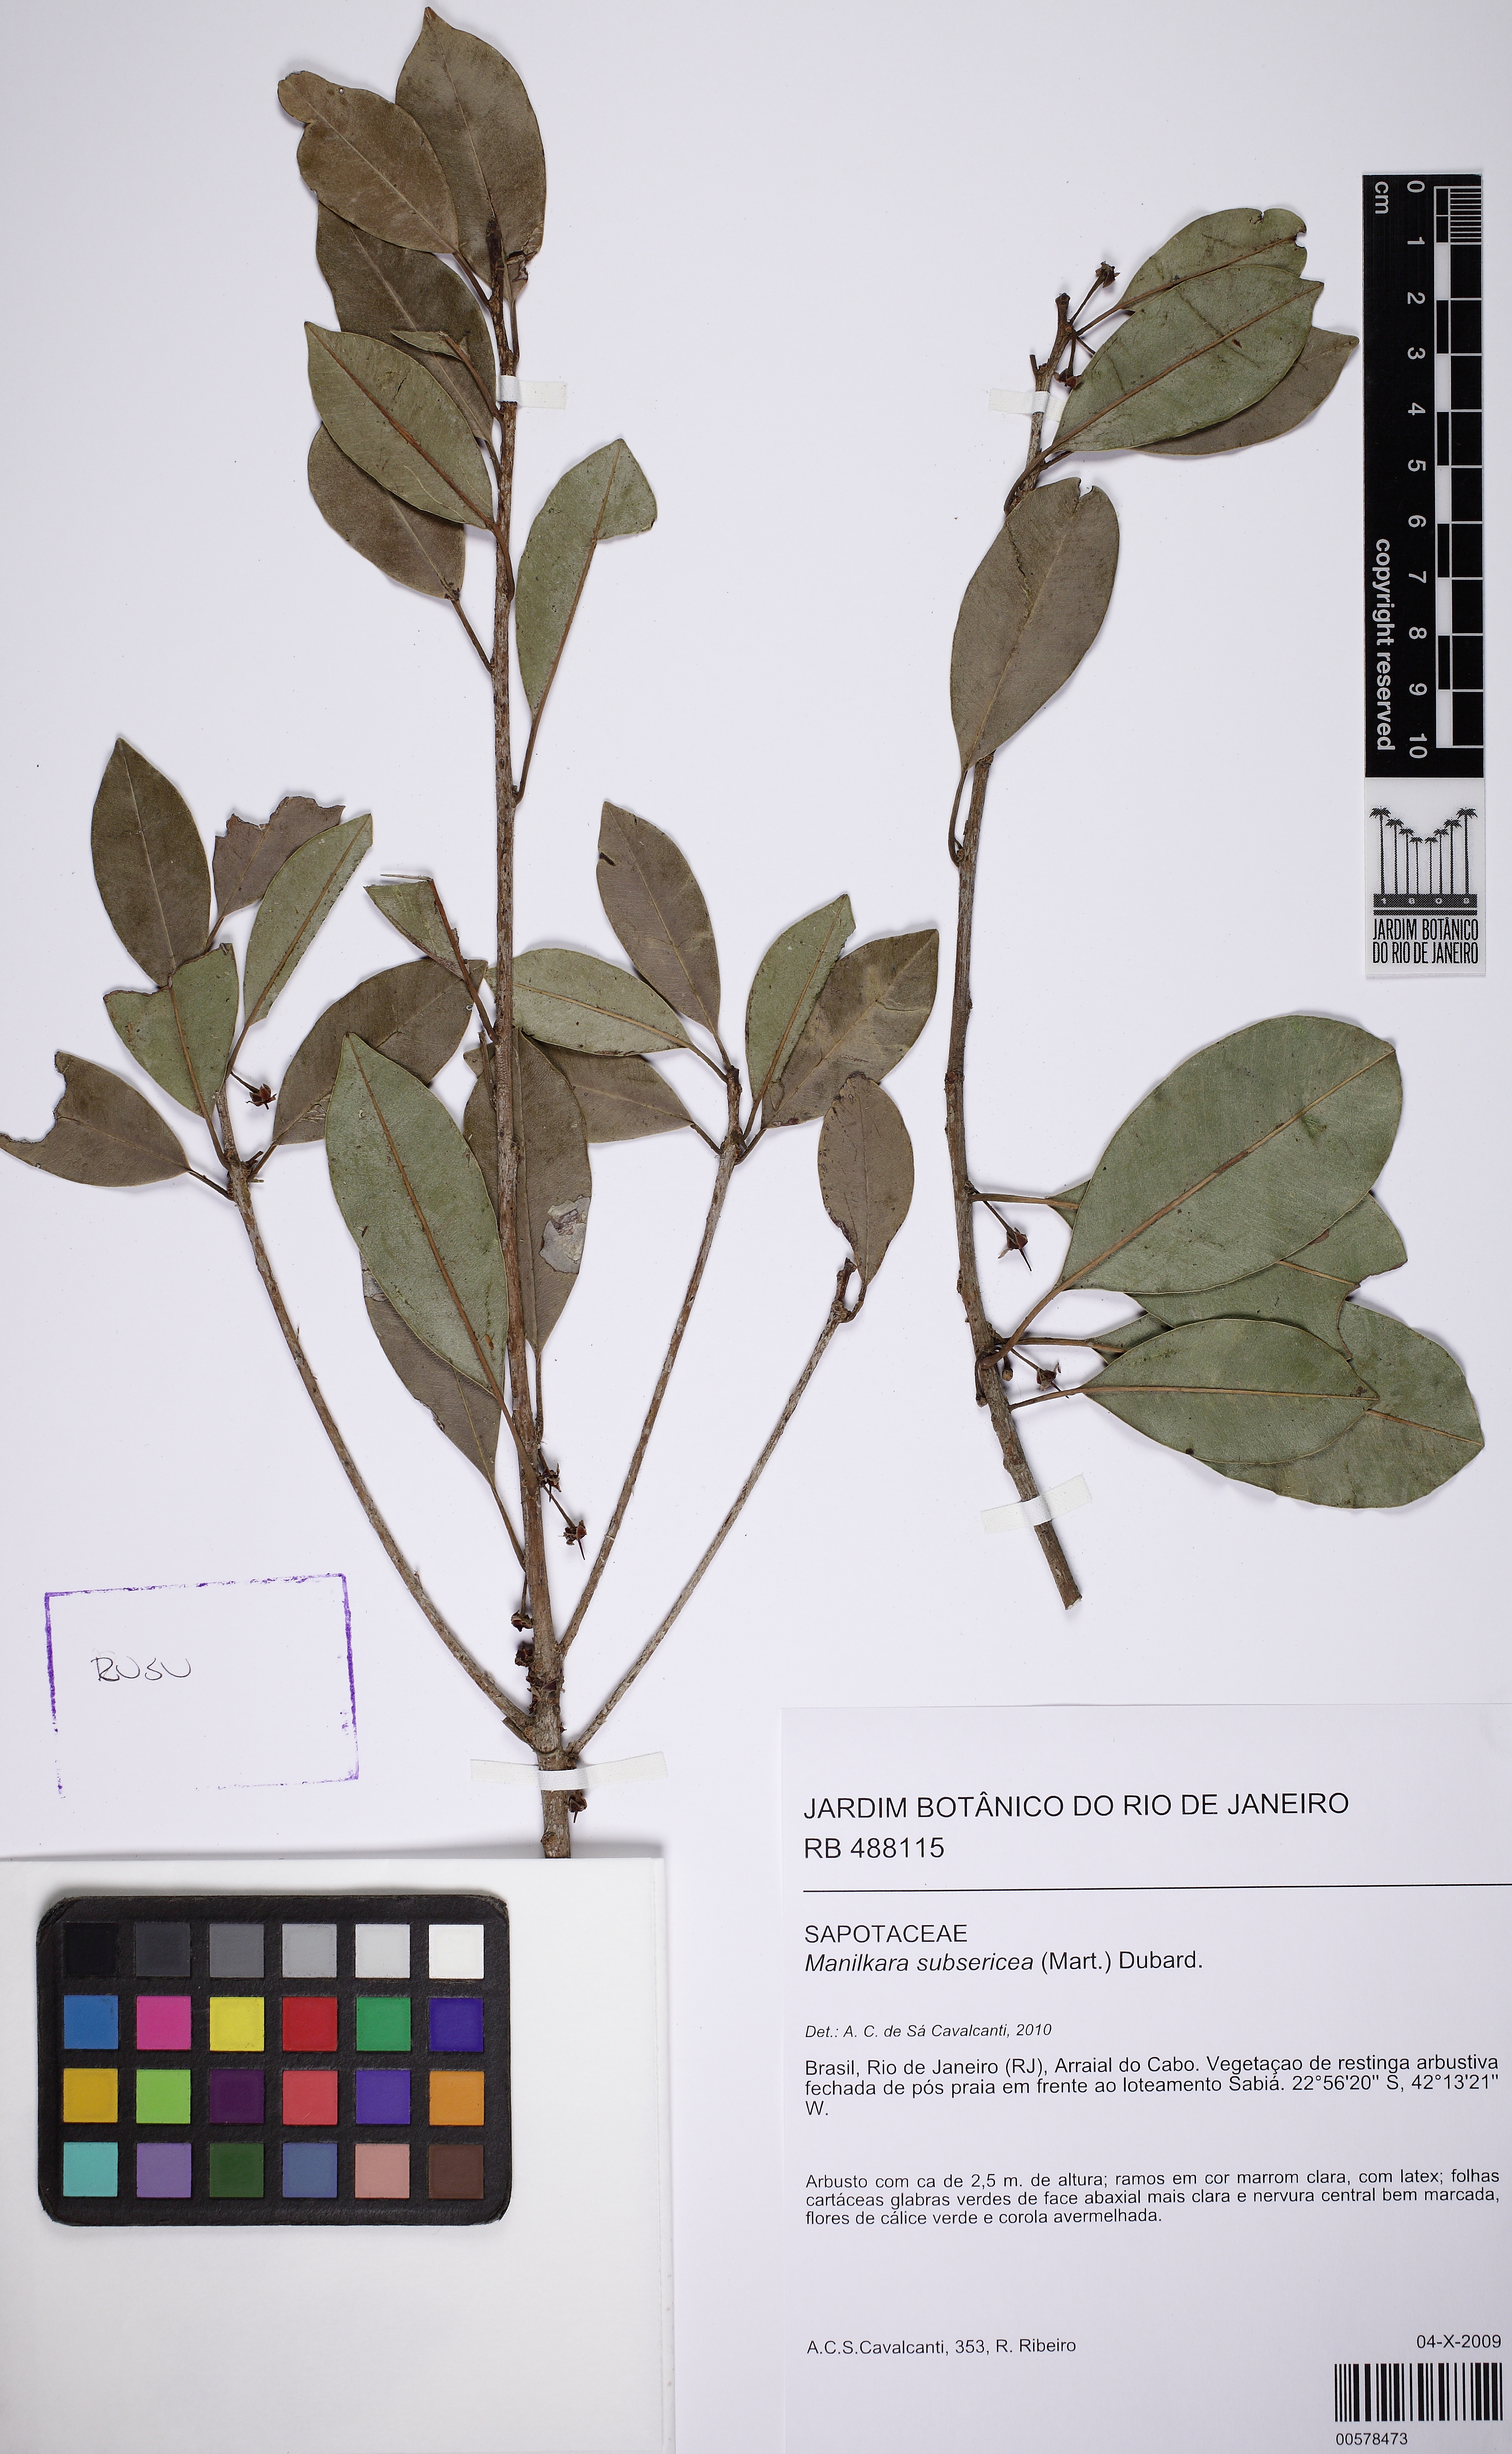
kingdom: Plantae
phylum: Tracheophyta
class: Magnoliopsida
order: Ericales
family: Sapotaceae
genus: Manilkara
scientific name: Manilkara subsericea
